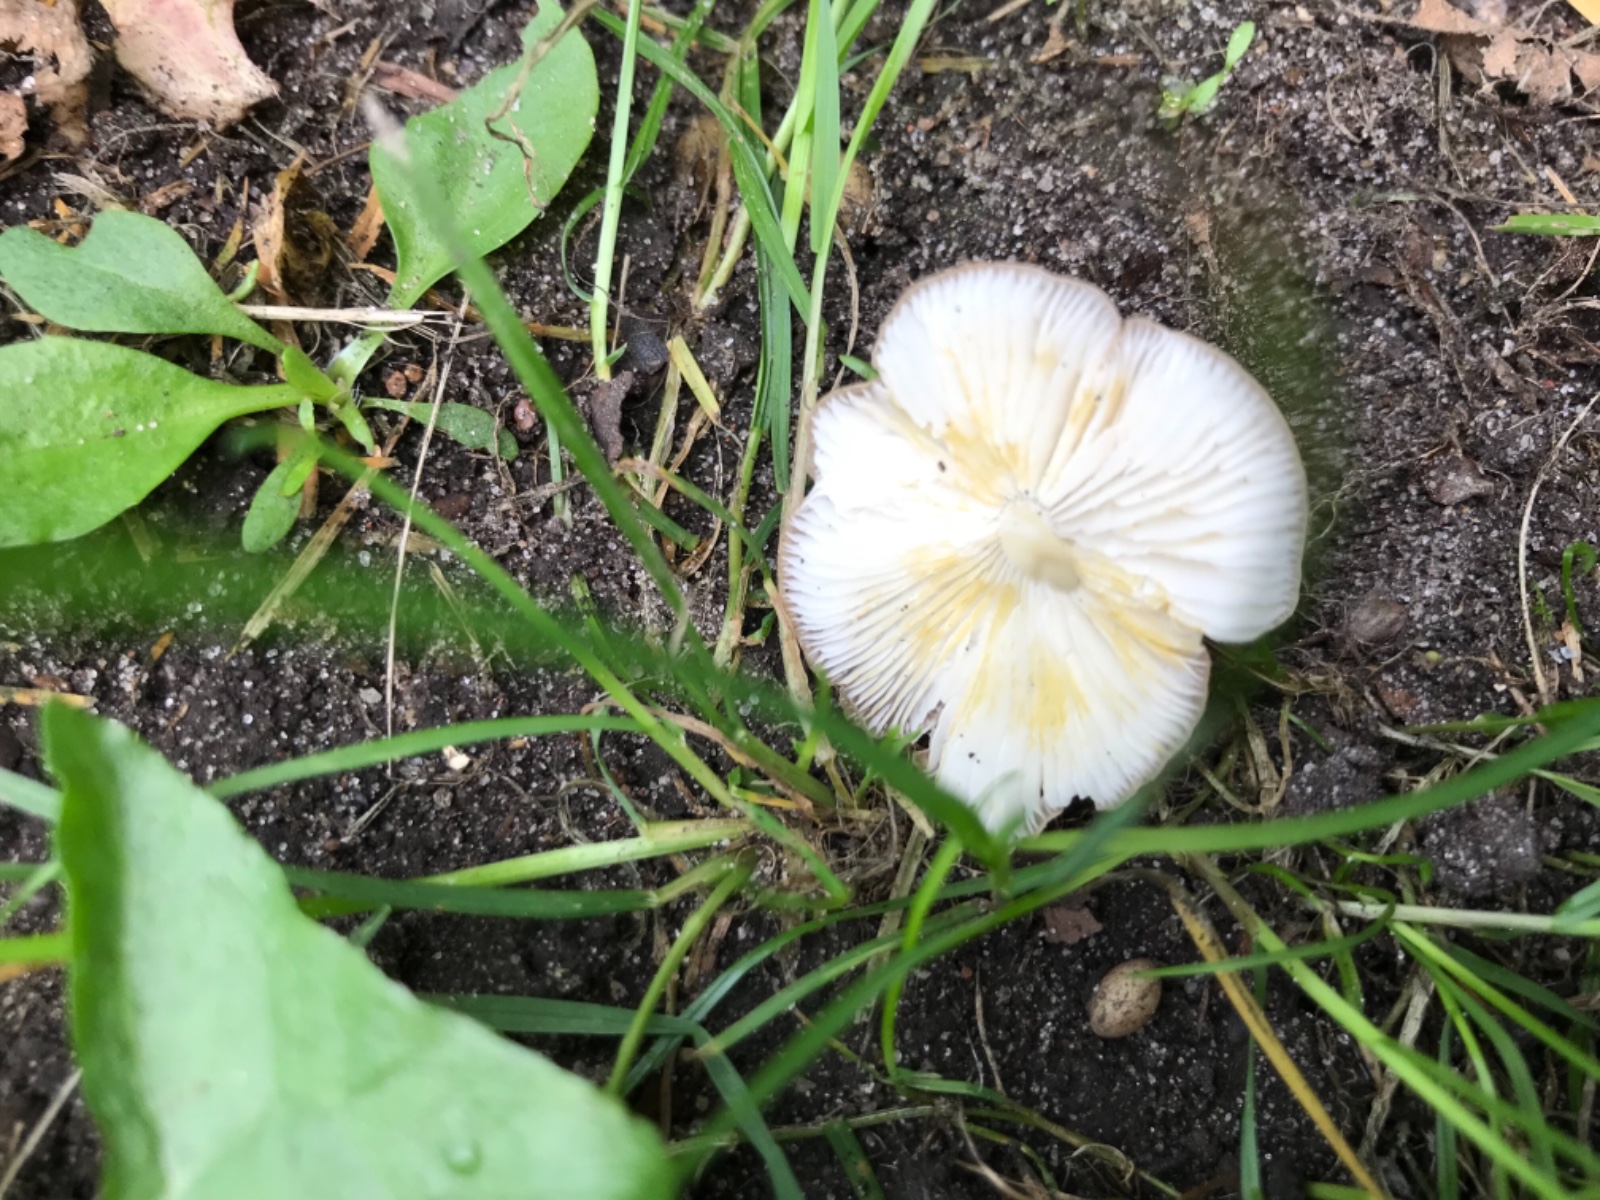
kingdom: Fungi
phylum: Basidiomycota
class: Agaricomycetes
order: Agaricales
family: Porotheleaceae
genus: Hydropodia
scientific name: Hydropodia subalpina
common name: vår-fnugfod
